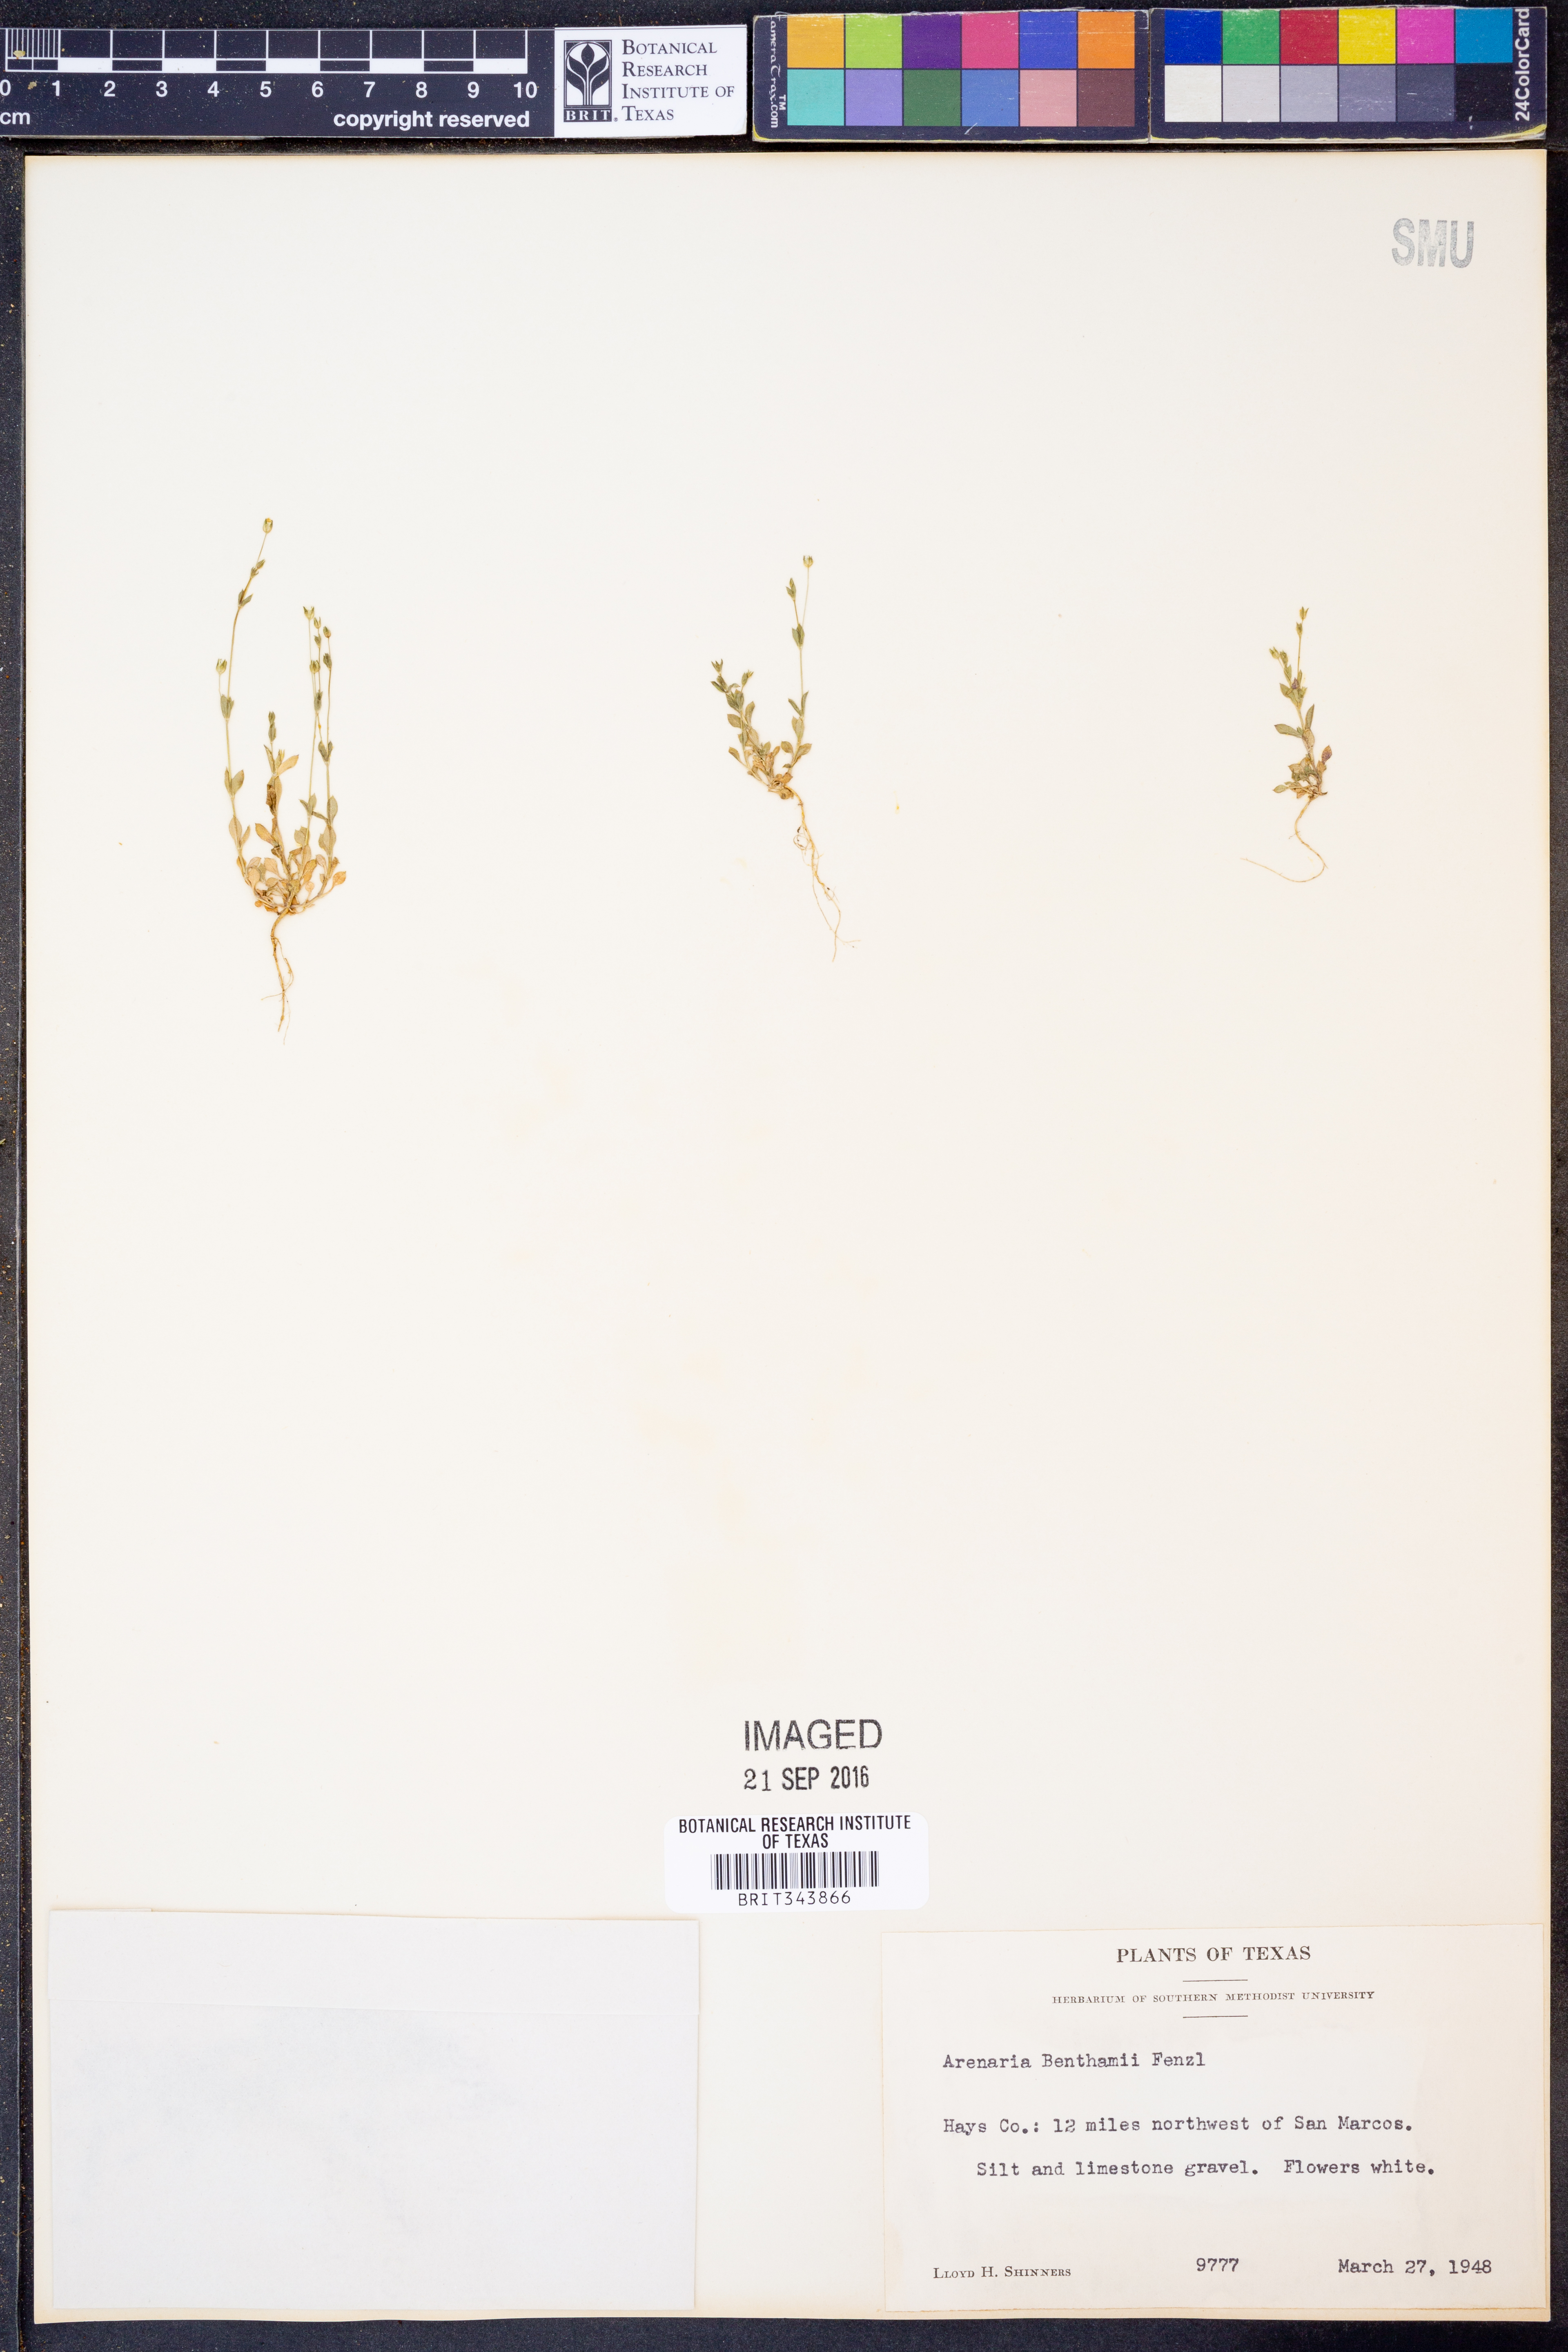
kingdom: Plantae
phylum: Tracheophyta
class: Magnoliopsida
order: Caryophyllales
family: Caryophyllaceae
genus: Arenaria
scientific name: Arenaria benthamii
